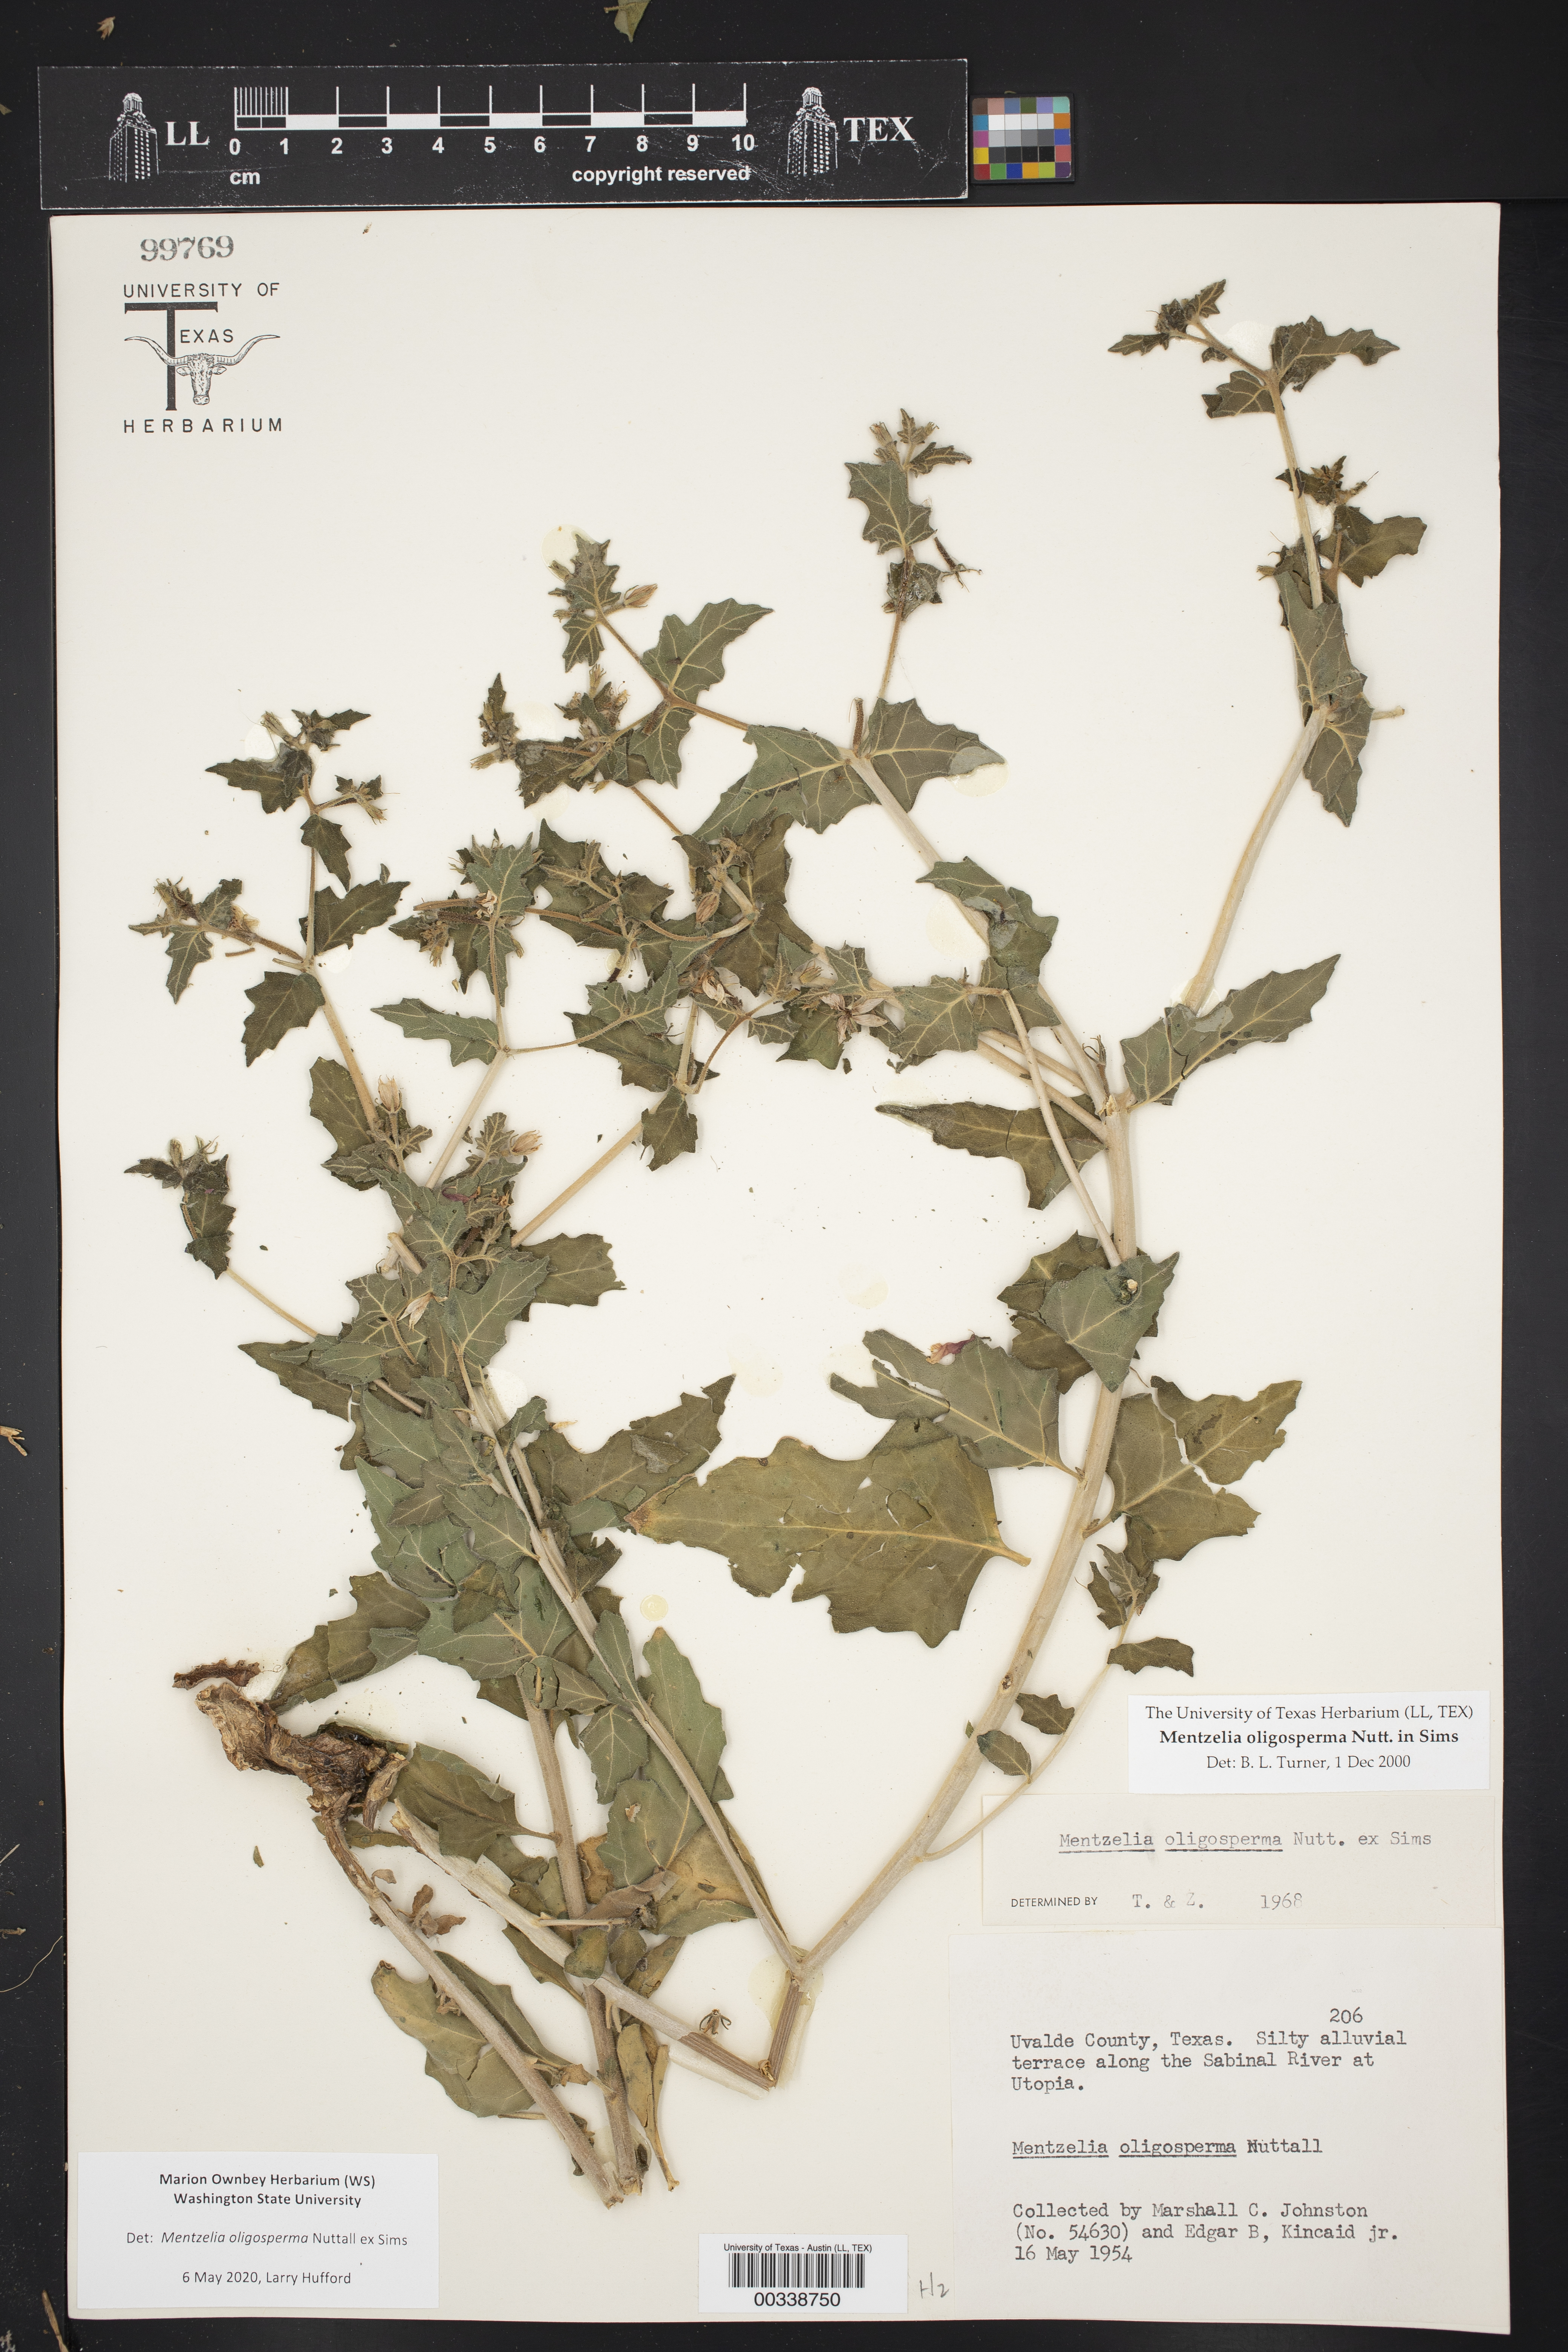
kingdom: Plantae
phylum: Tracheophyta
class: Magnoliopsida
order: Cornales
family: Loasaceae
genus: Mentzelia
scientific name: Mentzelia oligosperma
